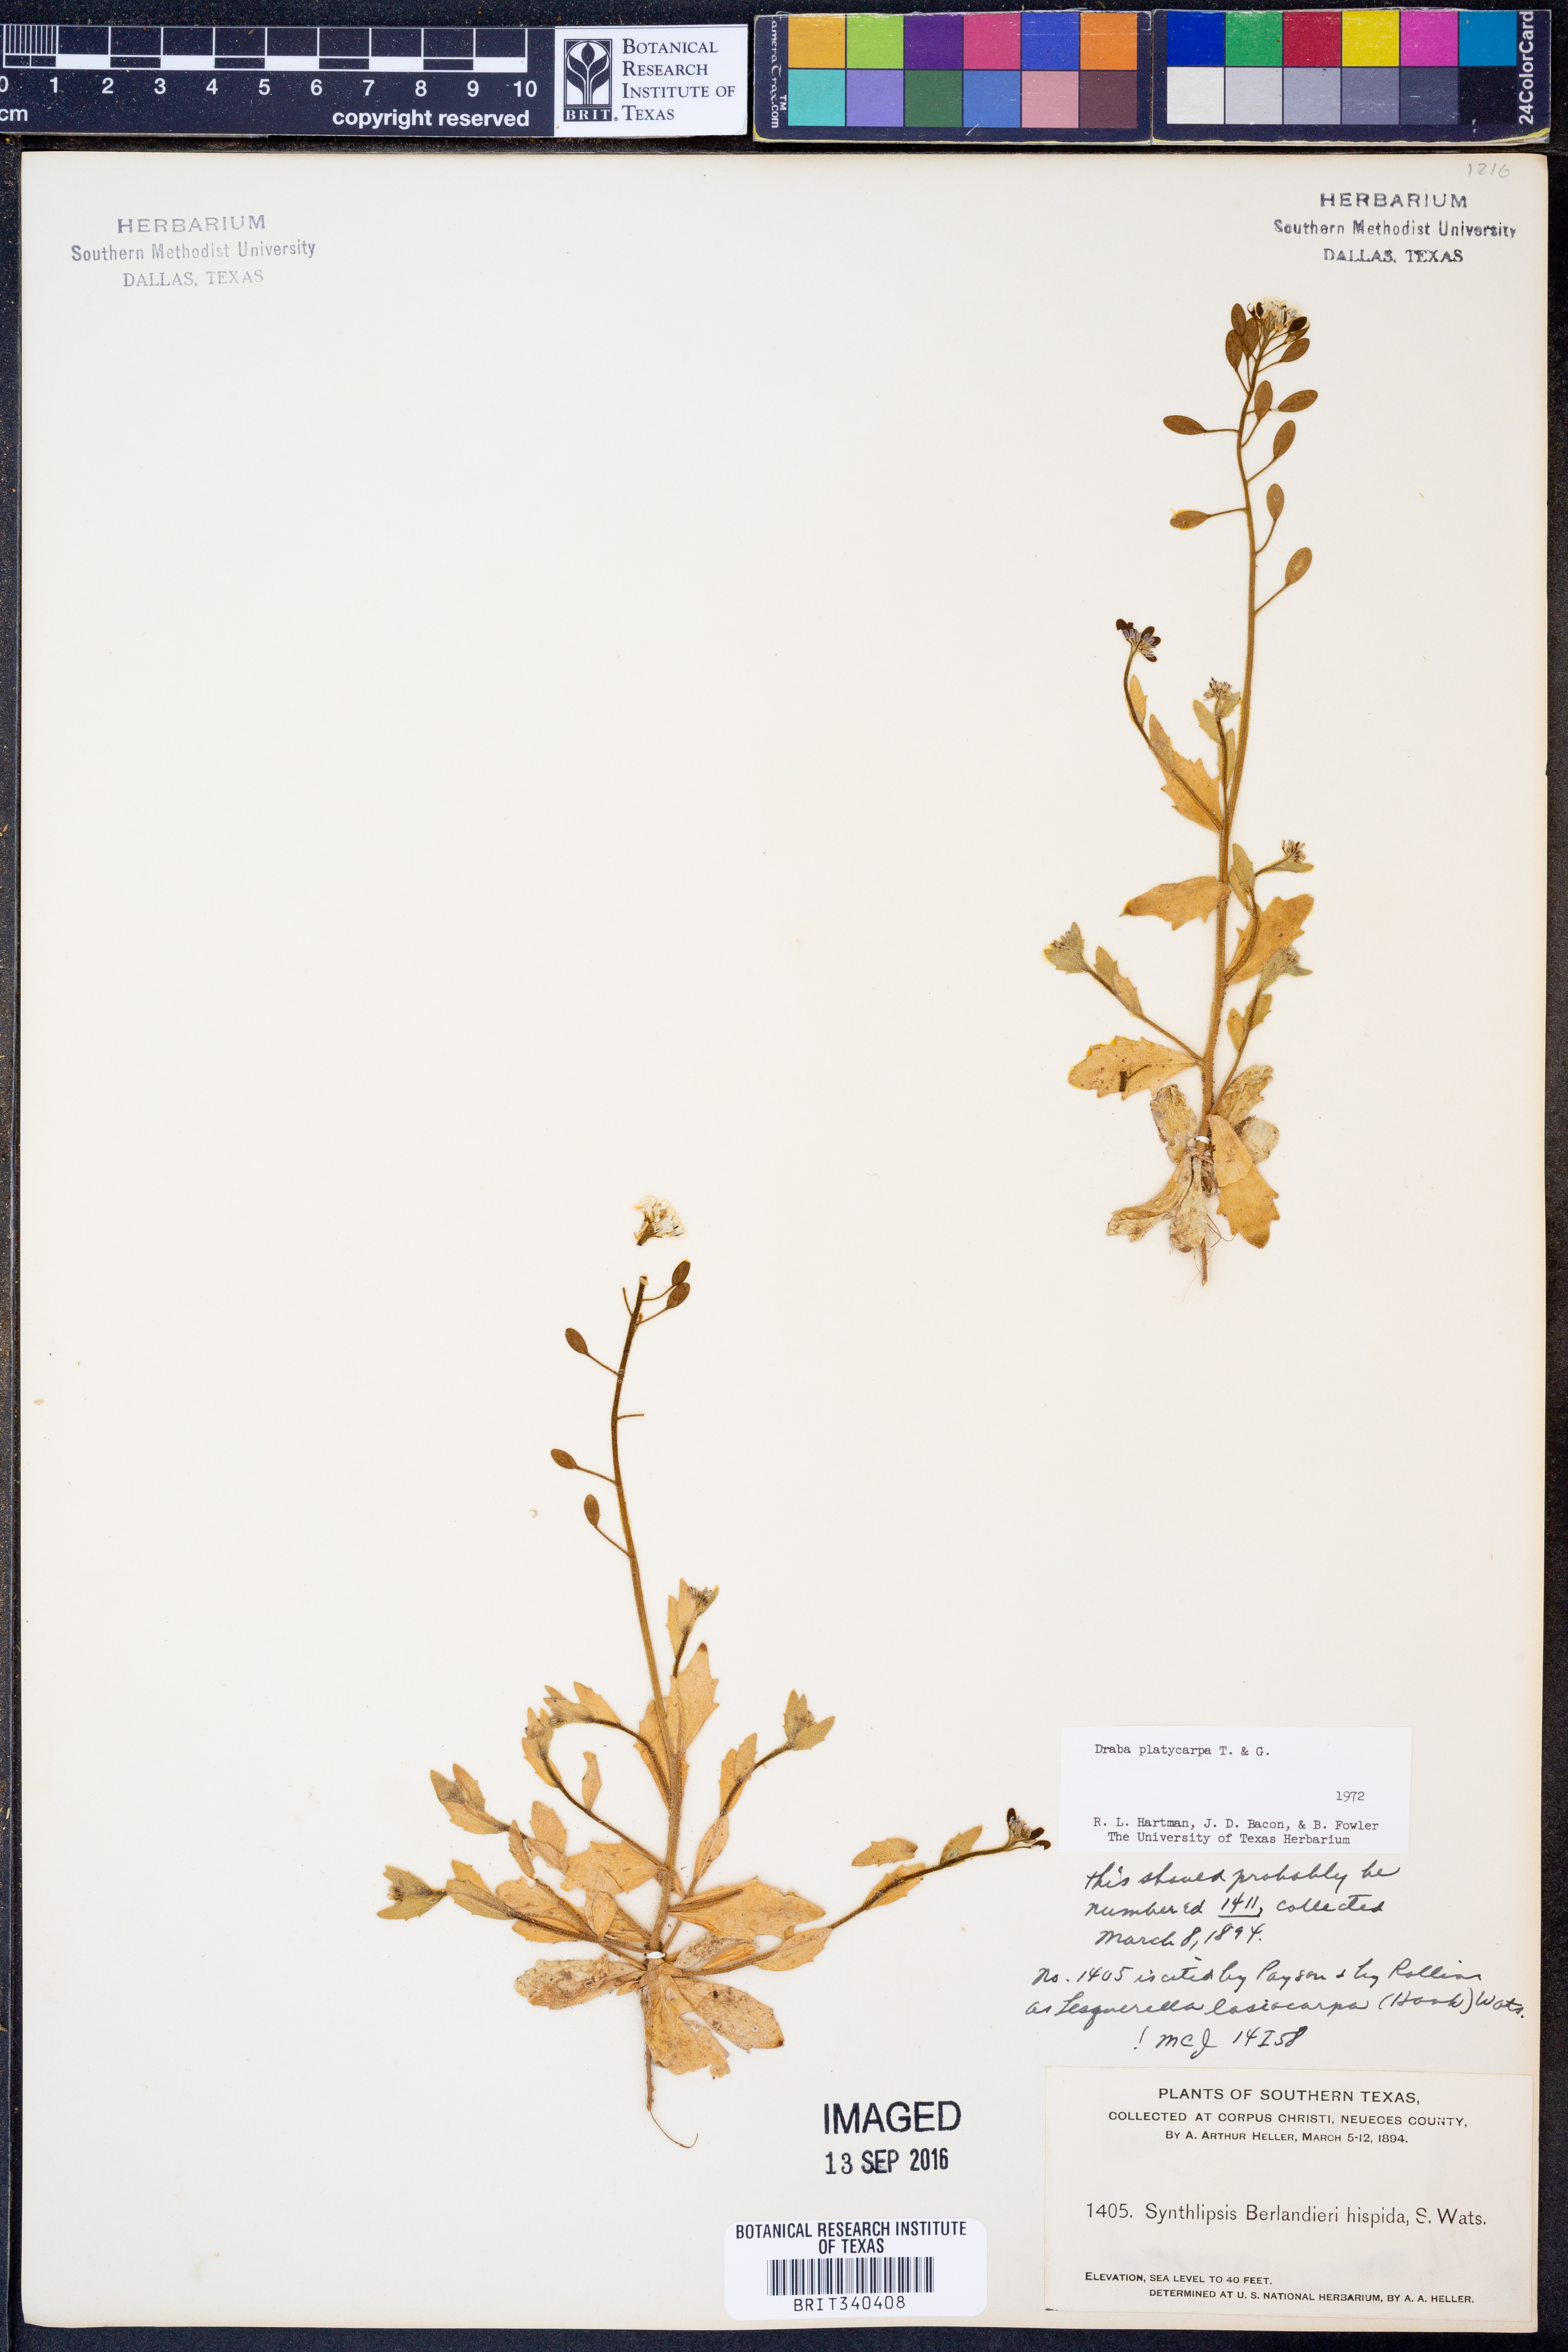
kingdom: Plantae
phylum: Tracheophyta
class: Magnoliopsida
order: Brassicales
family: Brassicaceae
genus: Tomostima
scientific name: Tomostima platycarpa
